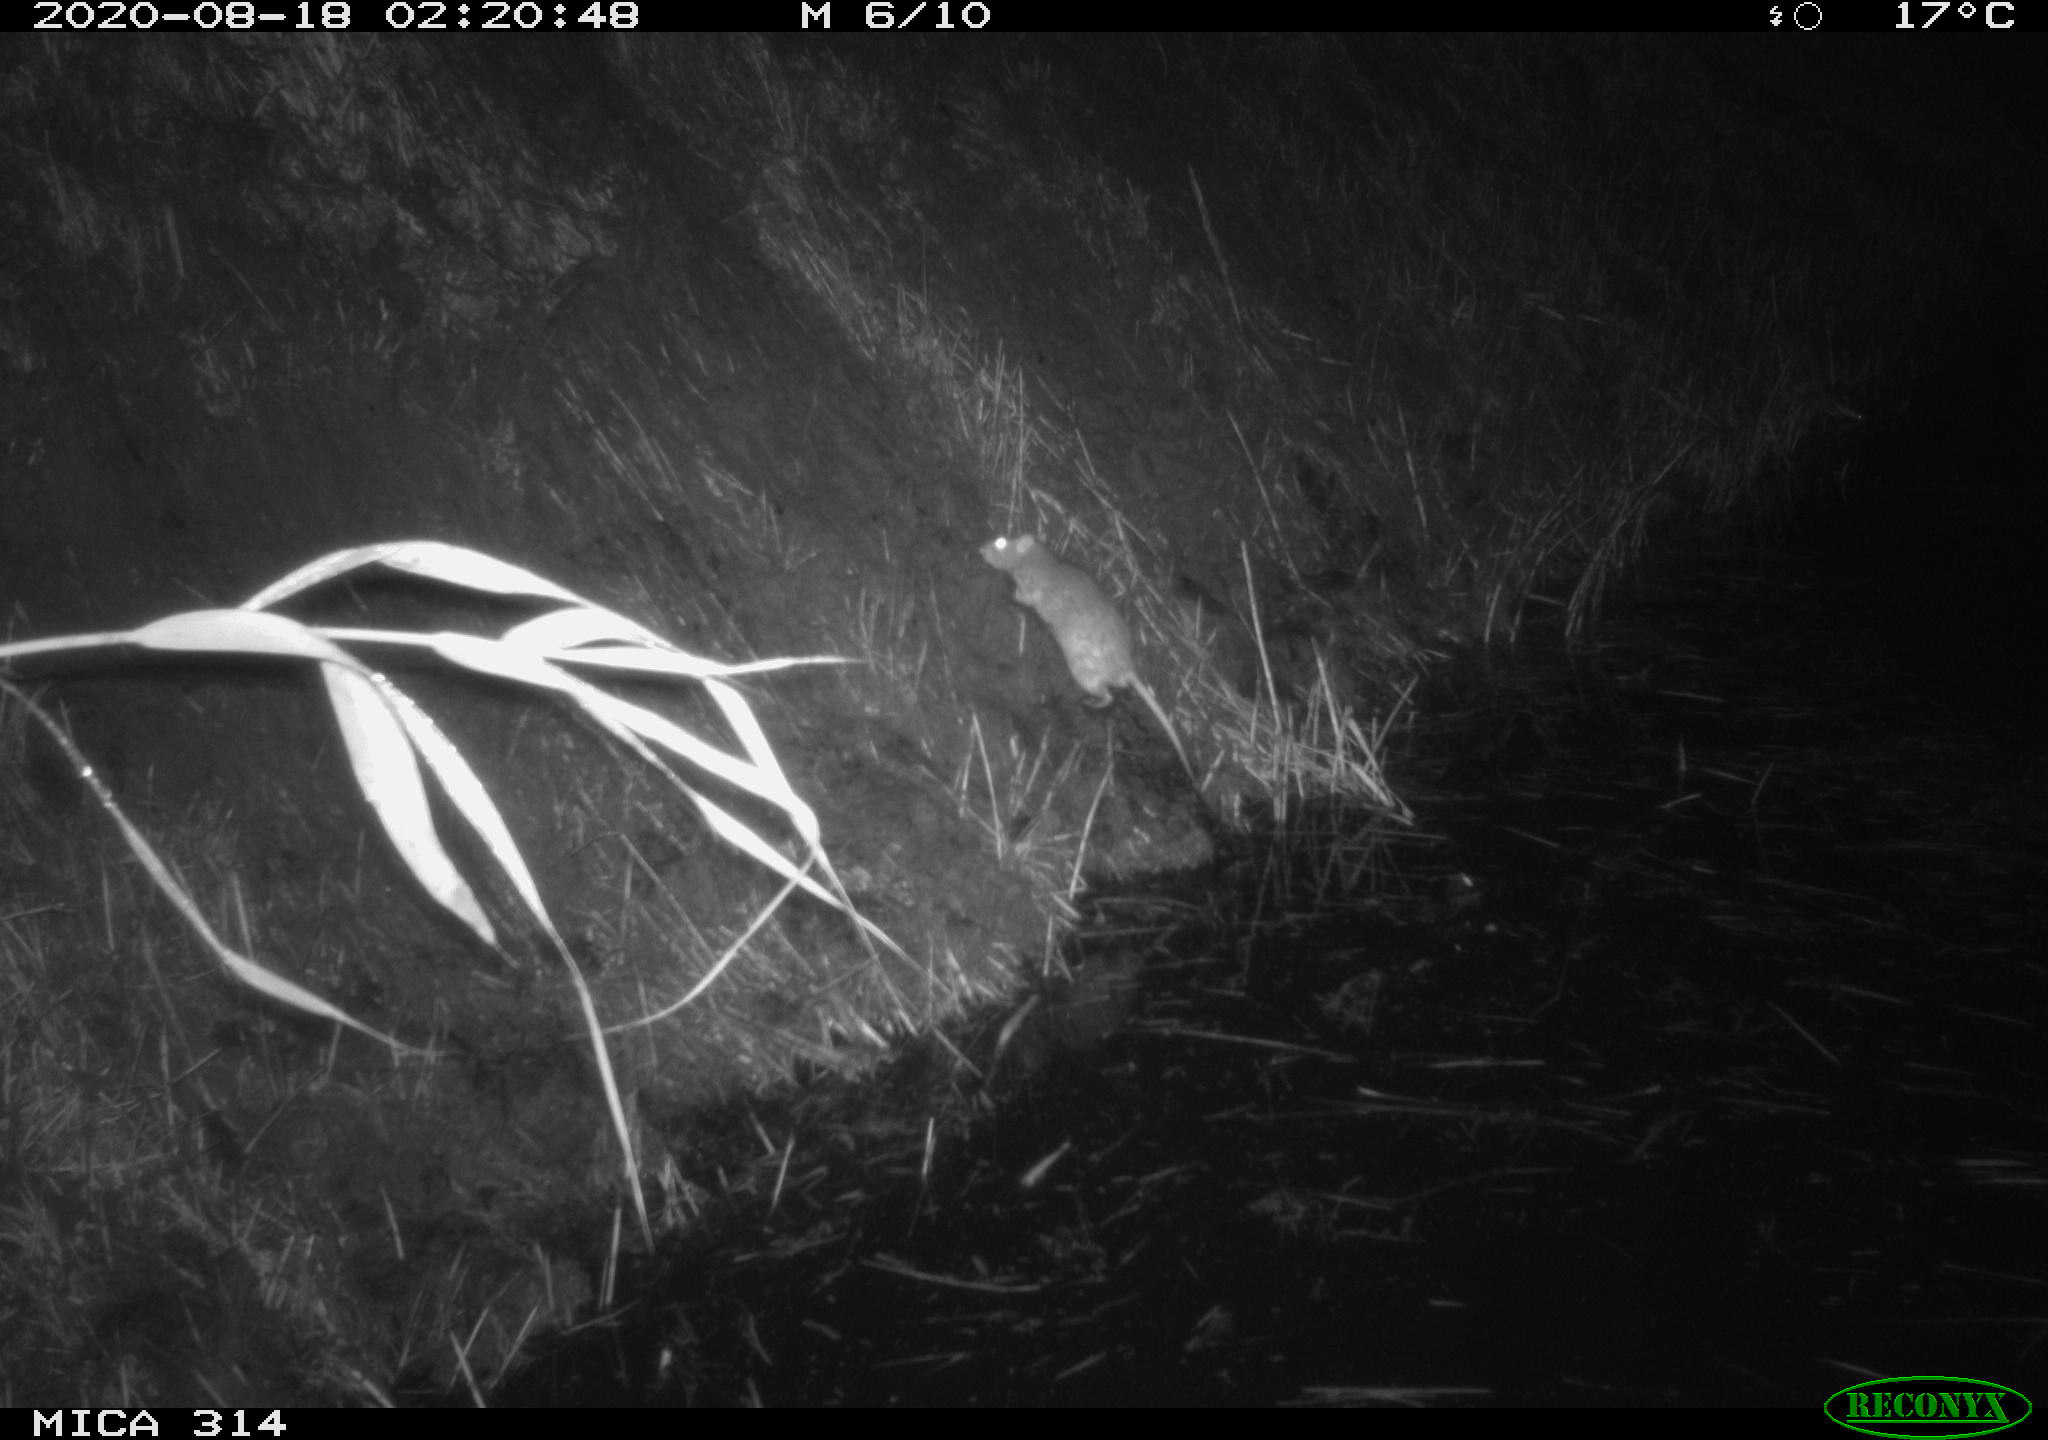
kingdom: Animalia
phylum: Chordata
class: Mammalia
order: Rodentia
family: Muridae
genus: Rattus
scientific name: Rattus norvegicus
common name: Brown rat
